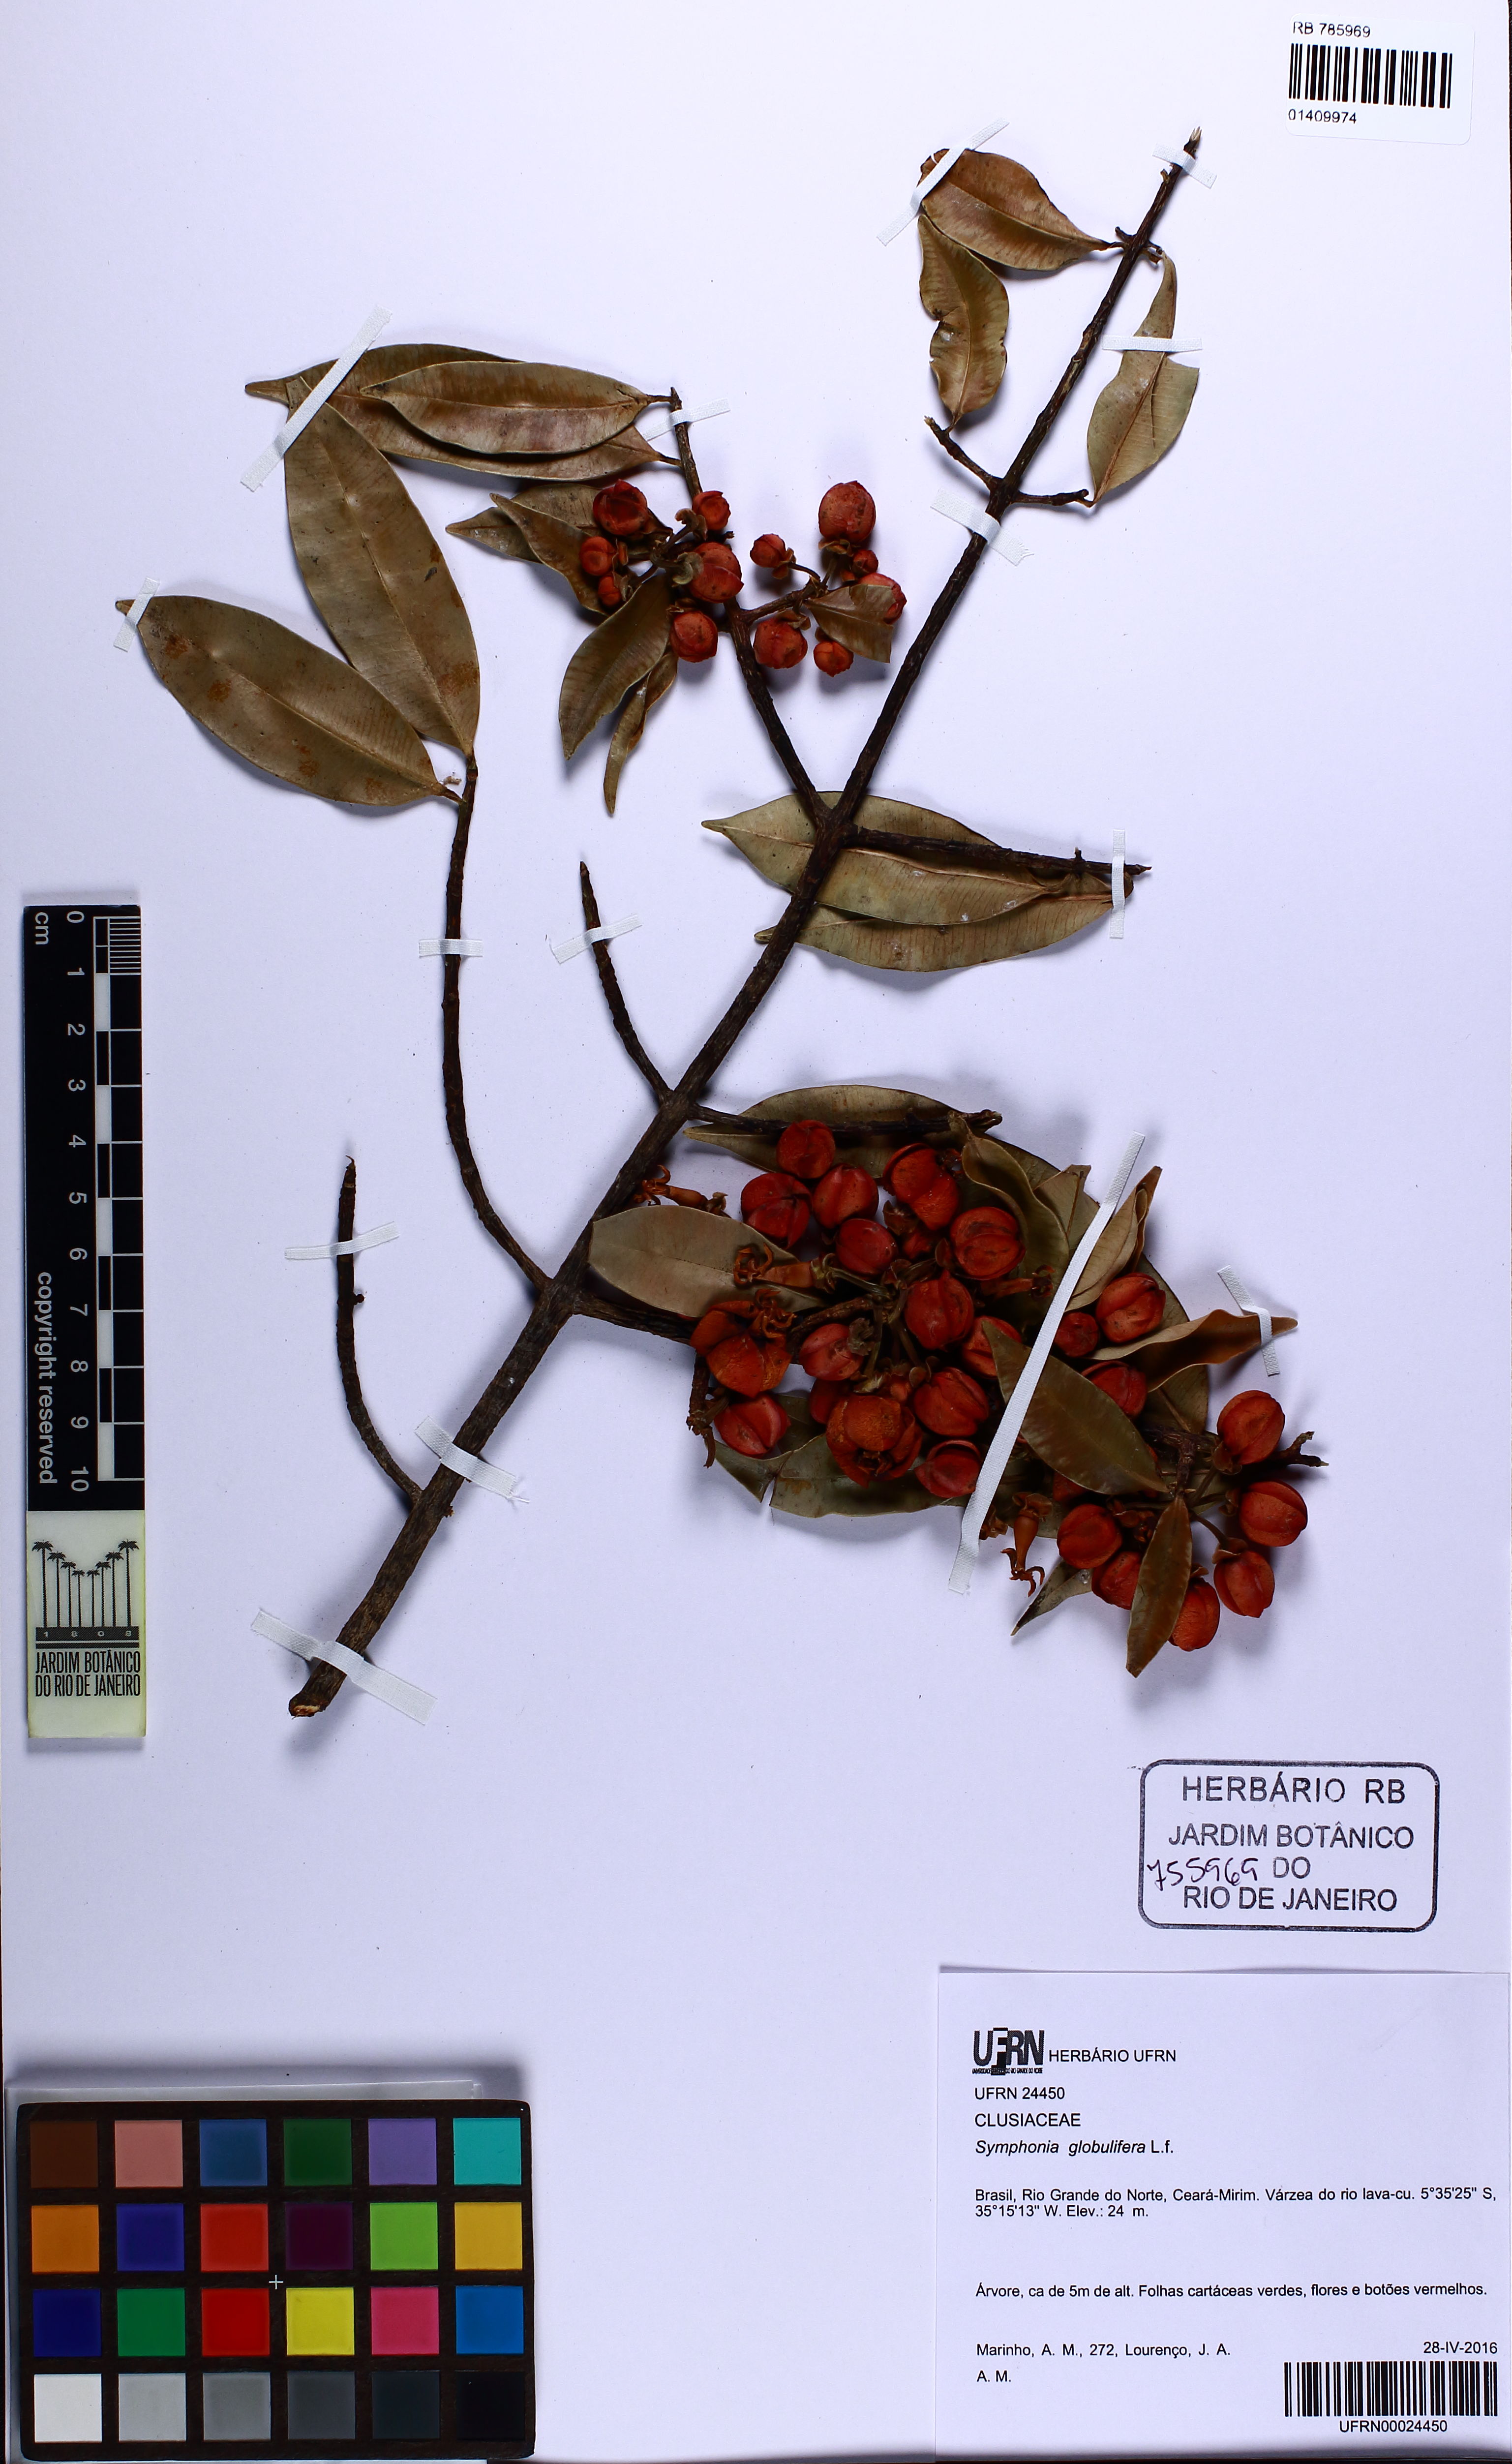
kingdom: Plantae
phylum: Tracheophyta
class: Magnoliopsida
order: Malpighiales
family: Clusiaceae
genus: Symphonia
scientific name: Symphonia globulifera
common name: Boarwood
